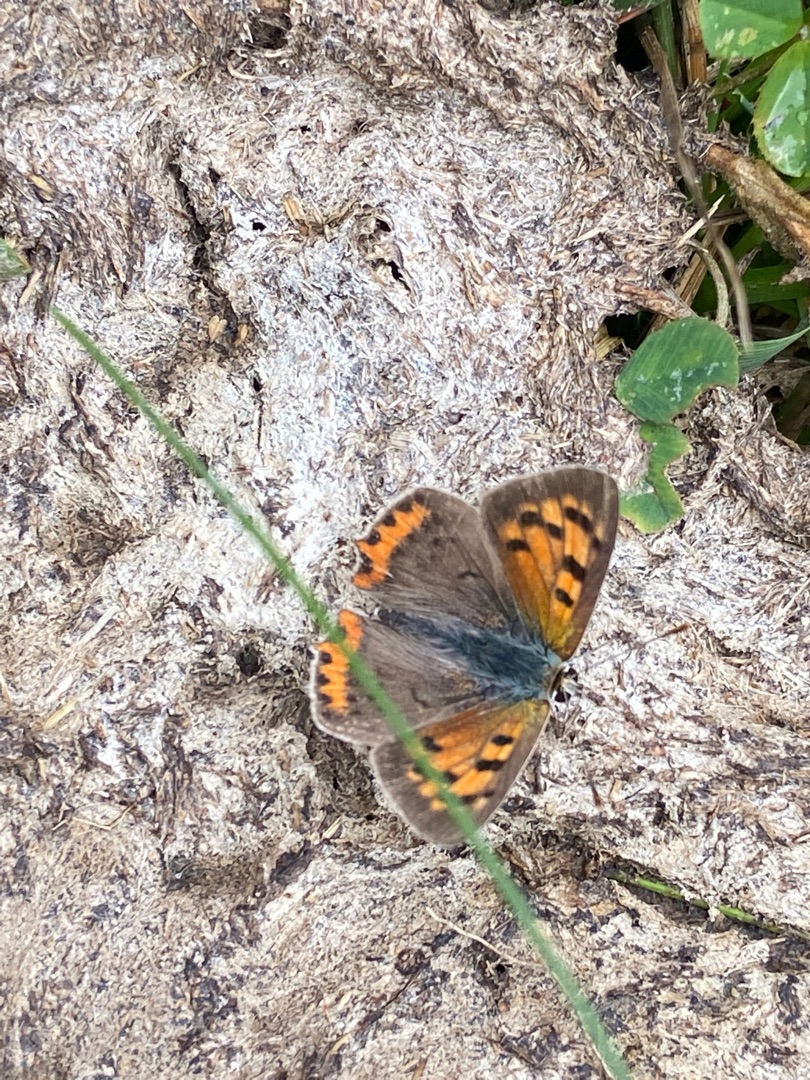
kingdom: Animalia
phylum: Arthropoda
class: Insecta
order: Lepidoptera
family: Lycaenidae
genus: Lycaena
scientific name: Lycaena phlaeas
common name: Lille ildfugl
